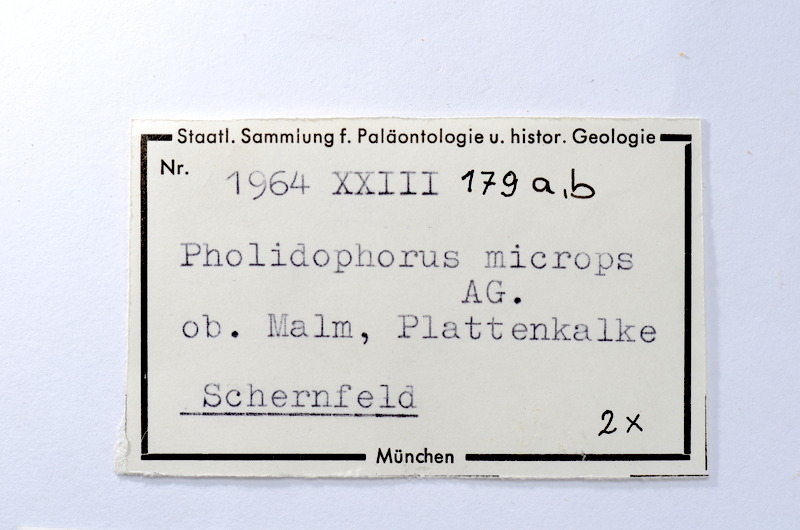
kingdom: Animalia
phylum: Chordata
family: Ankylophoridae
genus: Siemensichthys
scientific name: Siemensichthys macrocephalus
